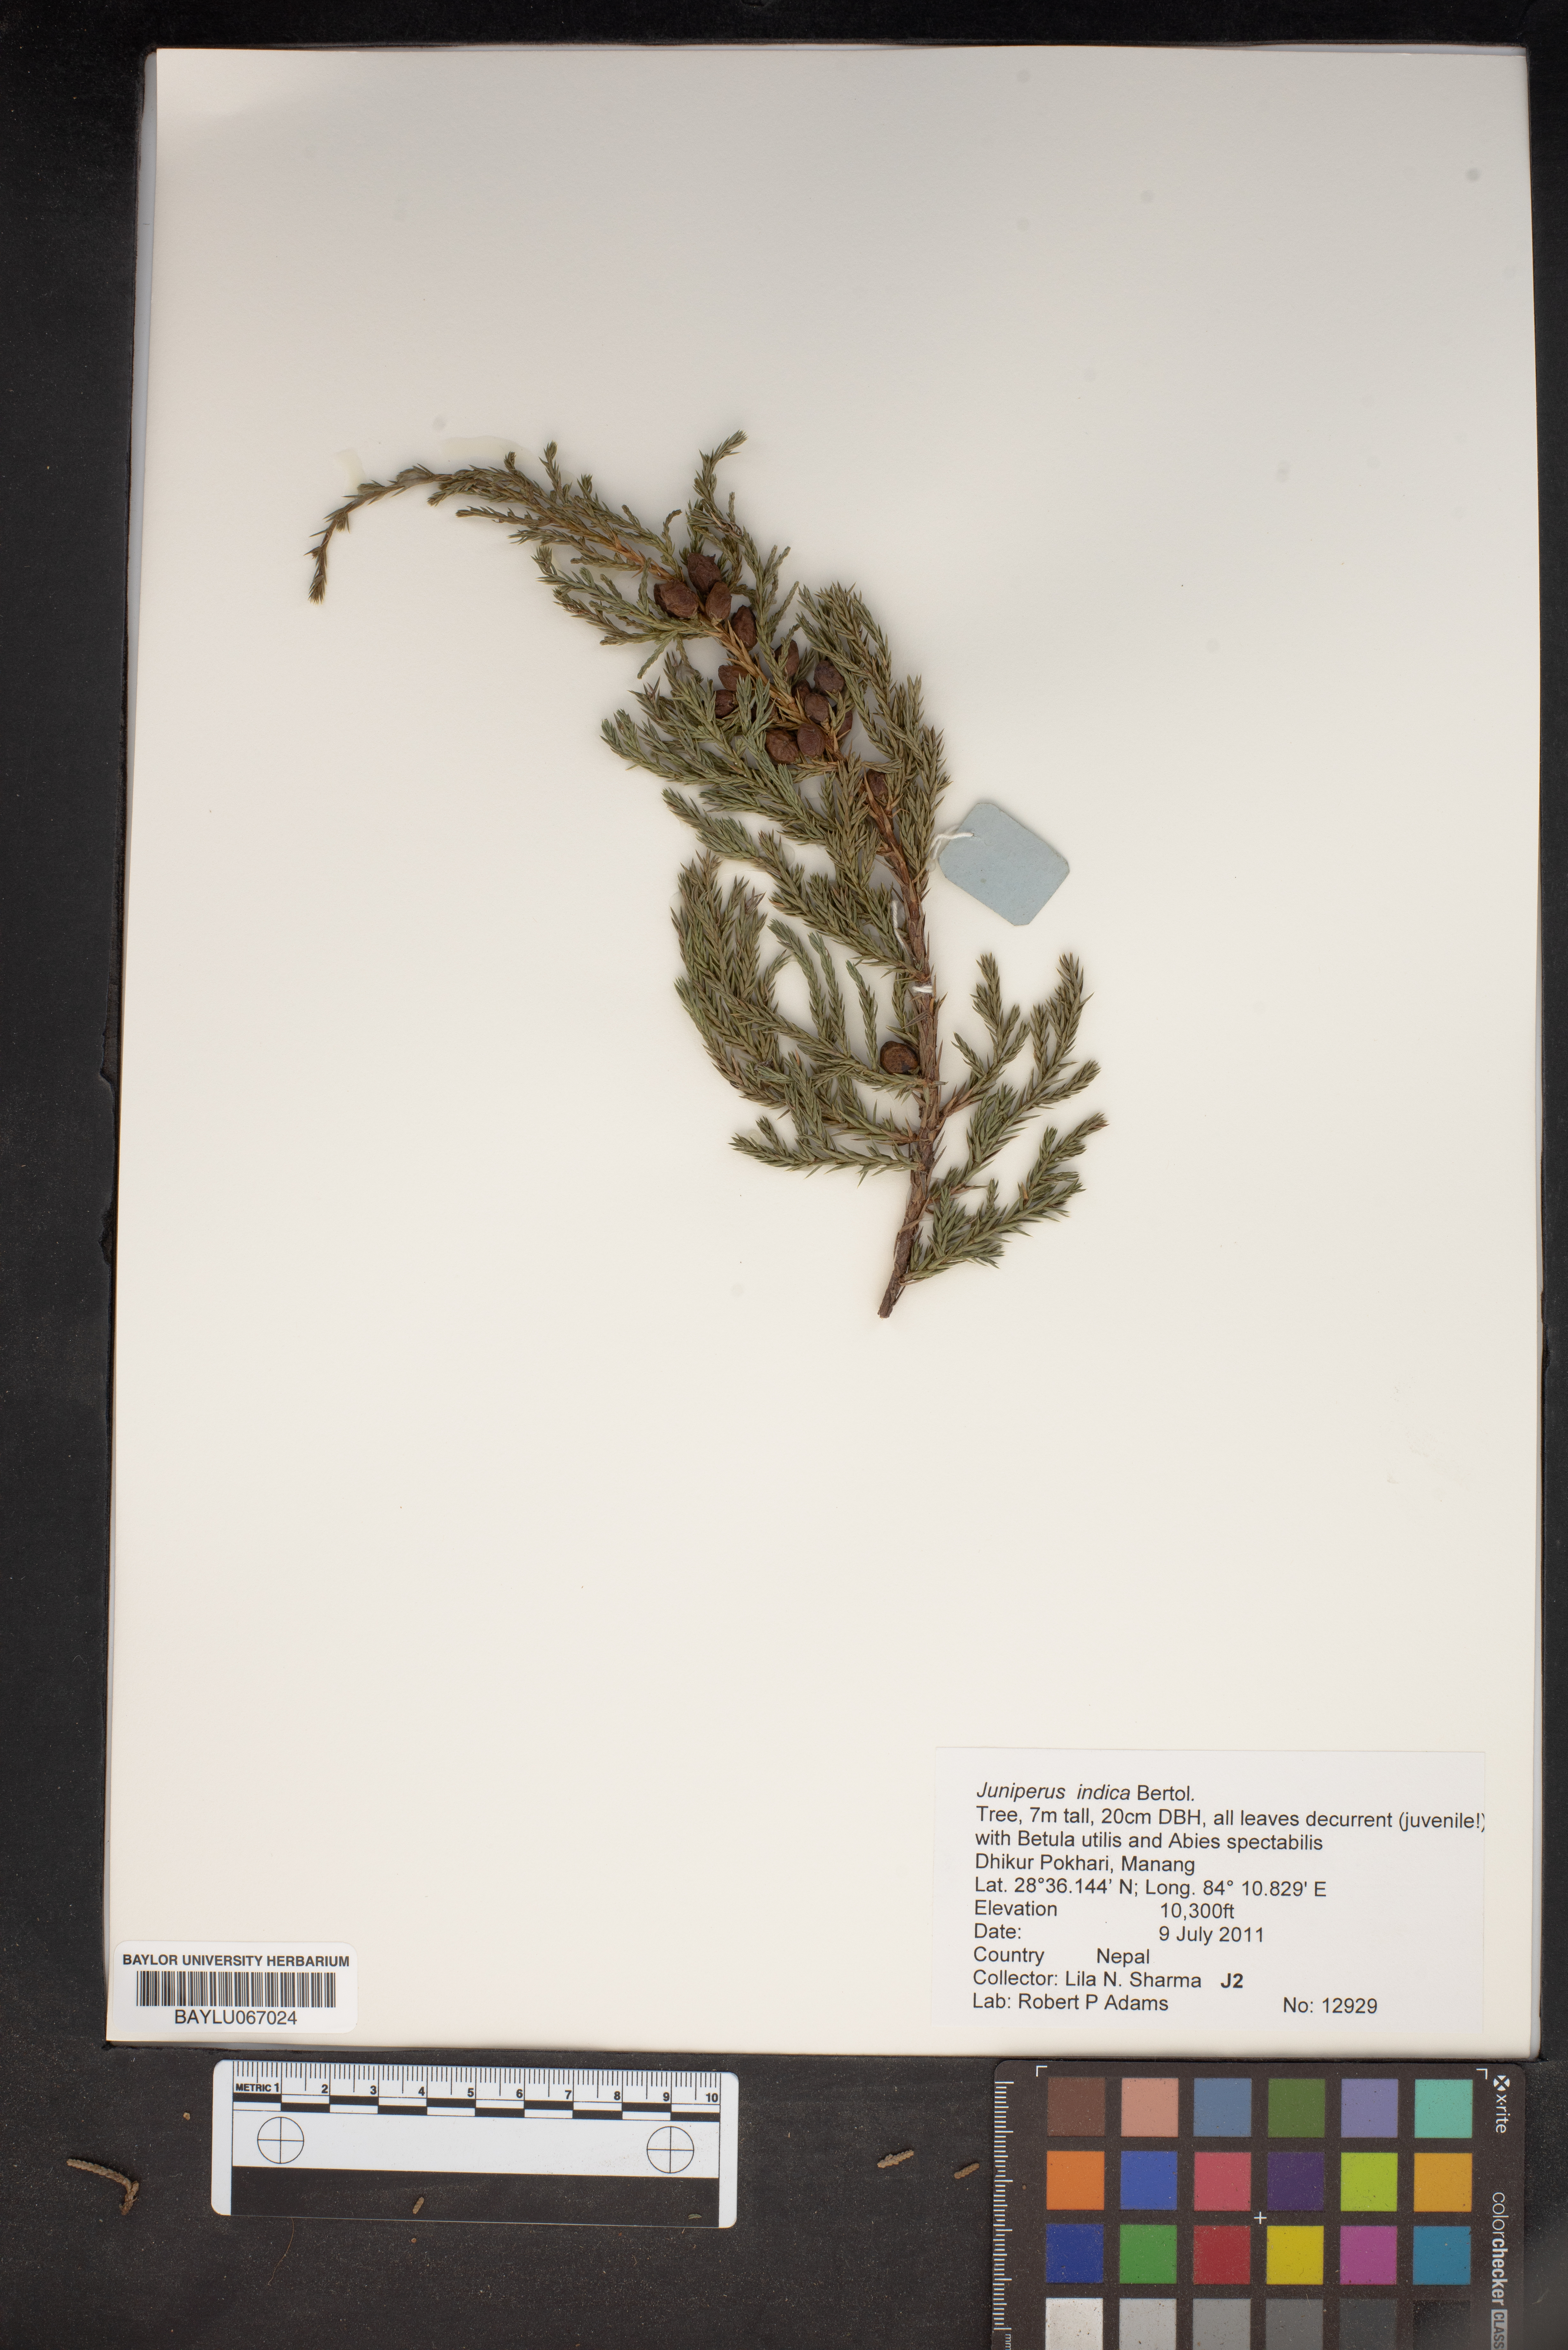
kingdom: Plantae
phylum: Tracheophyta
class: Pinopsida
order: Pinales
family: Cupressaceae
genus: Juniperus
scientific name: Juniperus indica
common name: Black juniper
